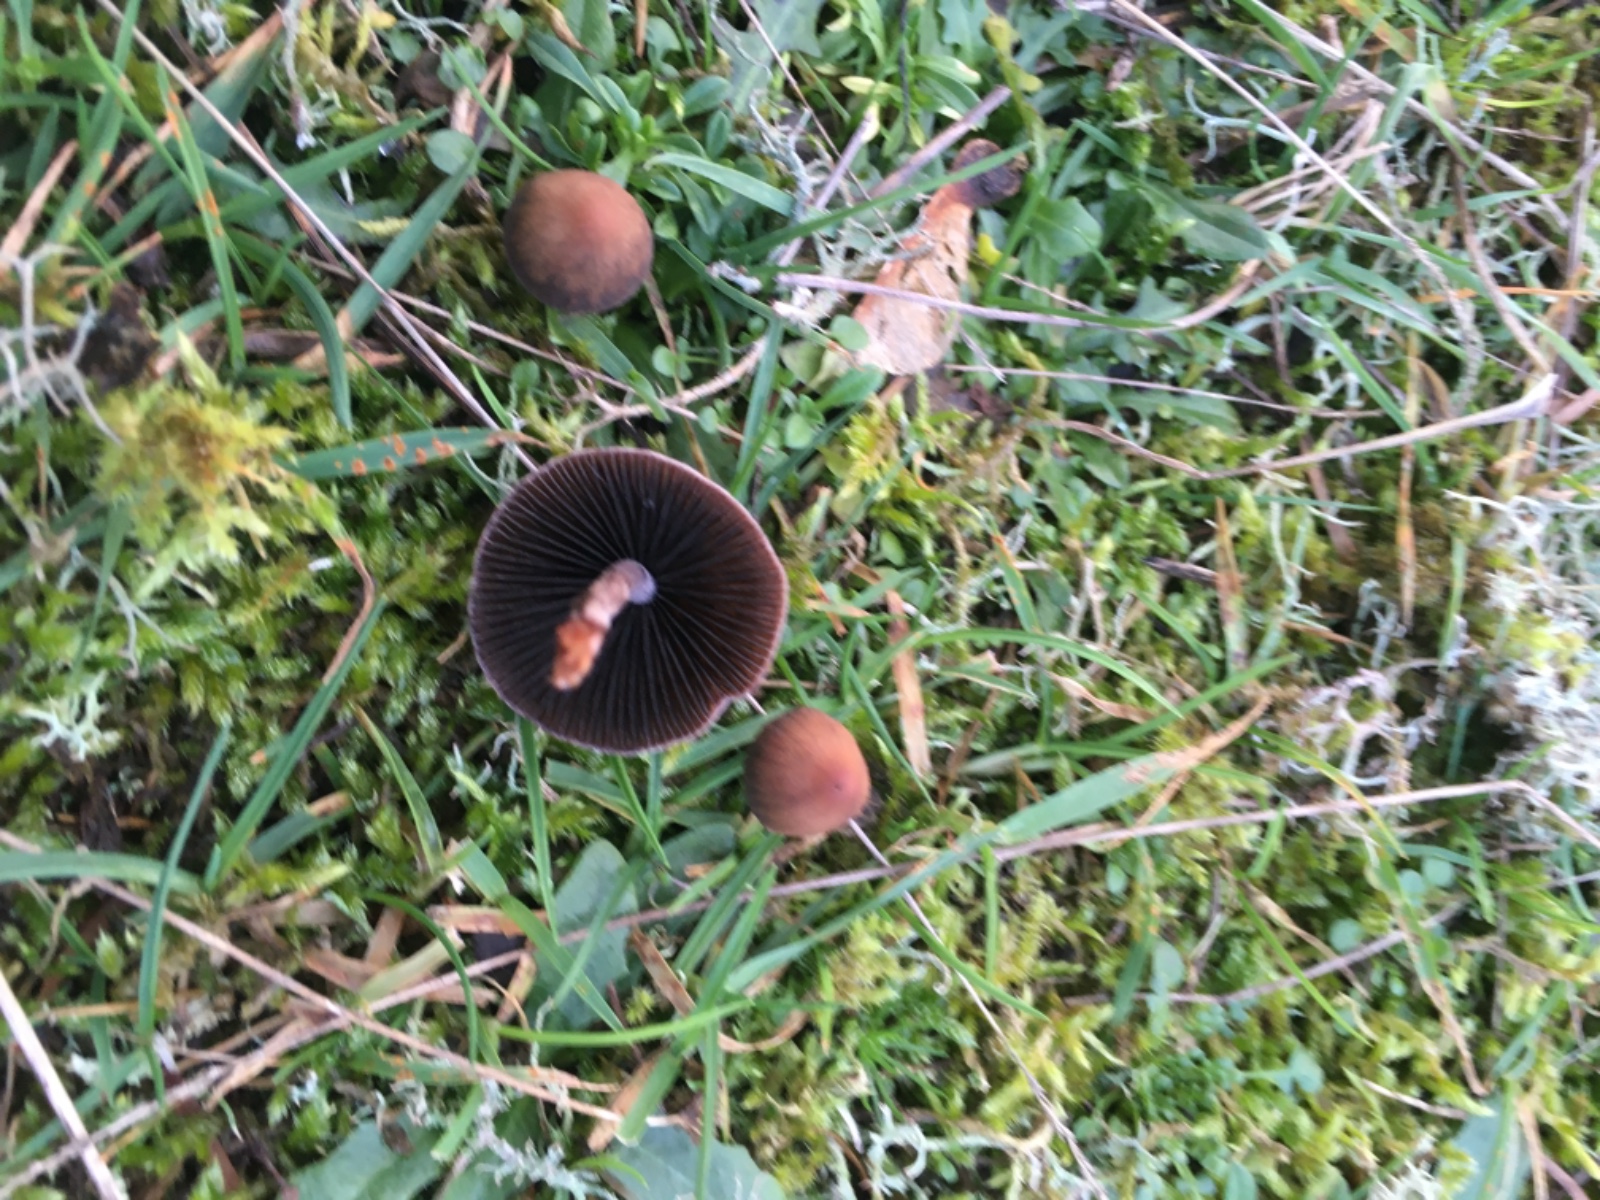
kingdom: Fungi
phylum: Basidiomycota
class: Agaricomycetes
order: Agaricales
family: Bolbitiaceae
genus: Panaeolus
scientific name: Panaeolus
